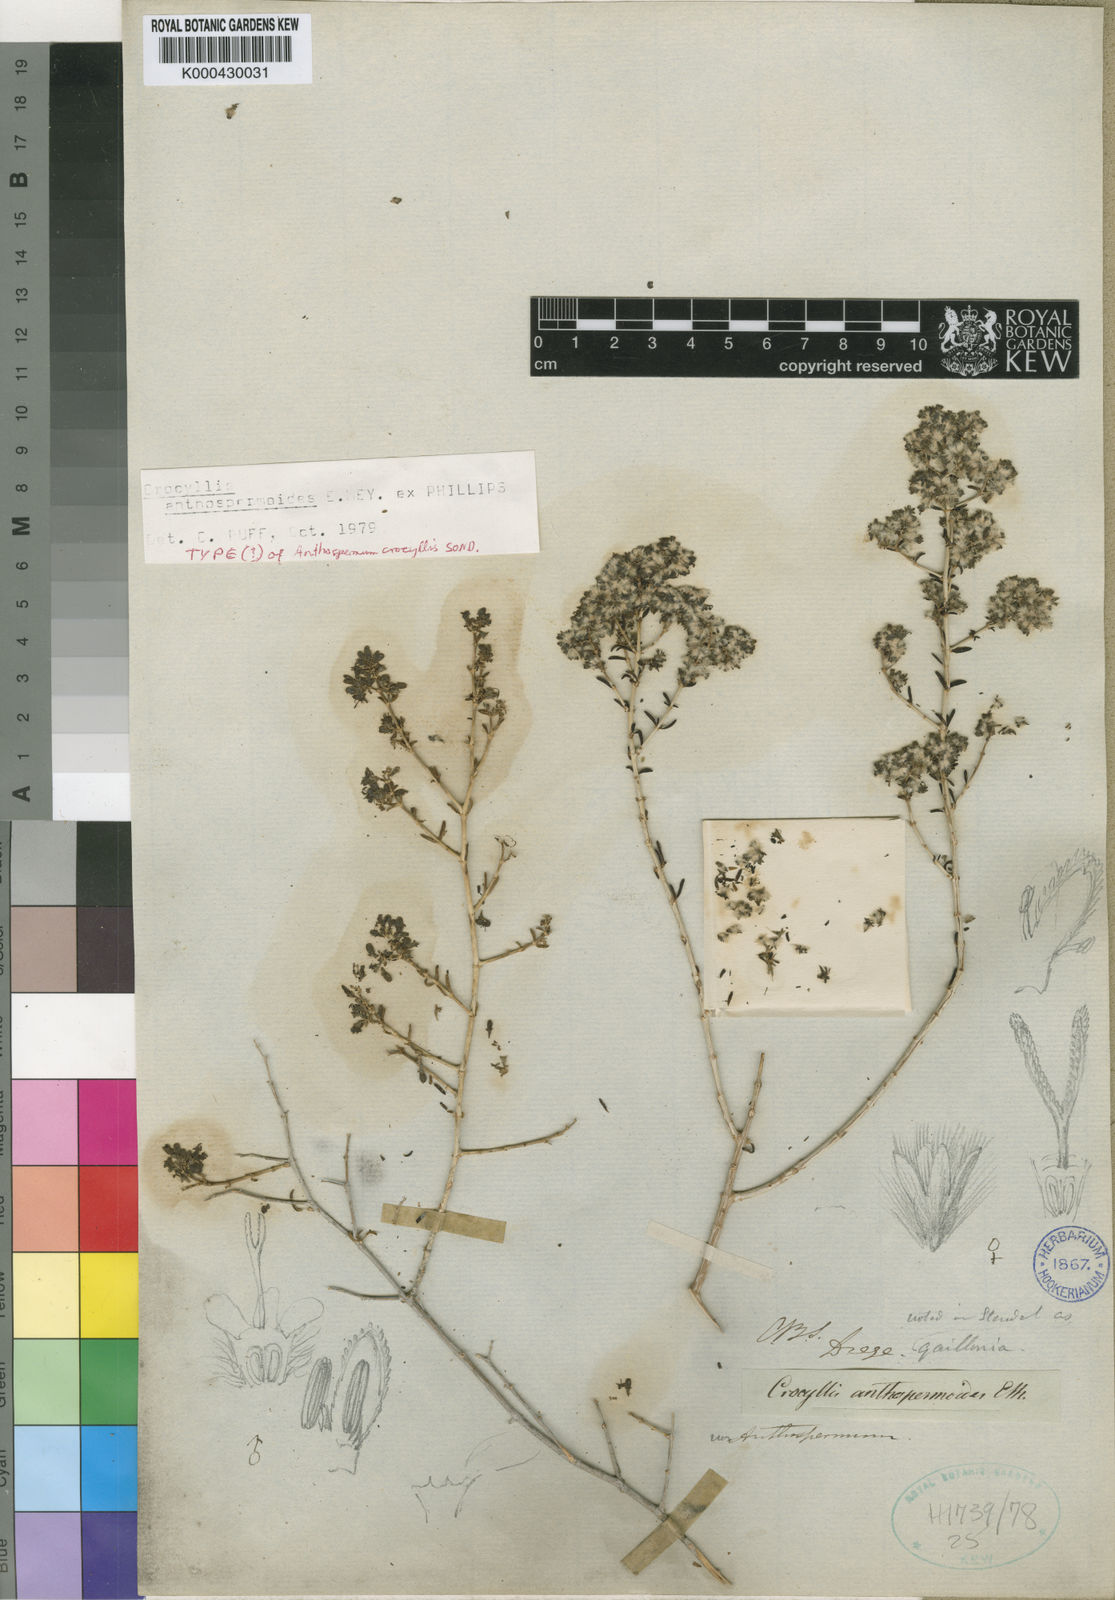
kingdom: Plantae
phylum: Tracheophyta
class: Magnoliopsida
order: Gentianales
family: Rubiaceae
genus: Plocama
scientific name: Plocama crocyllis
